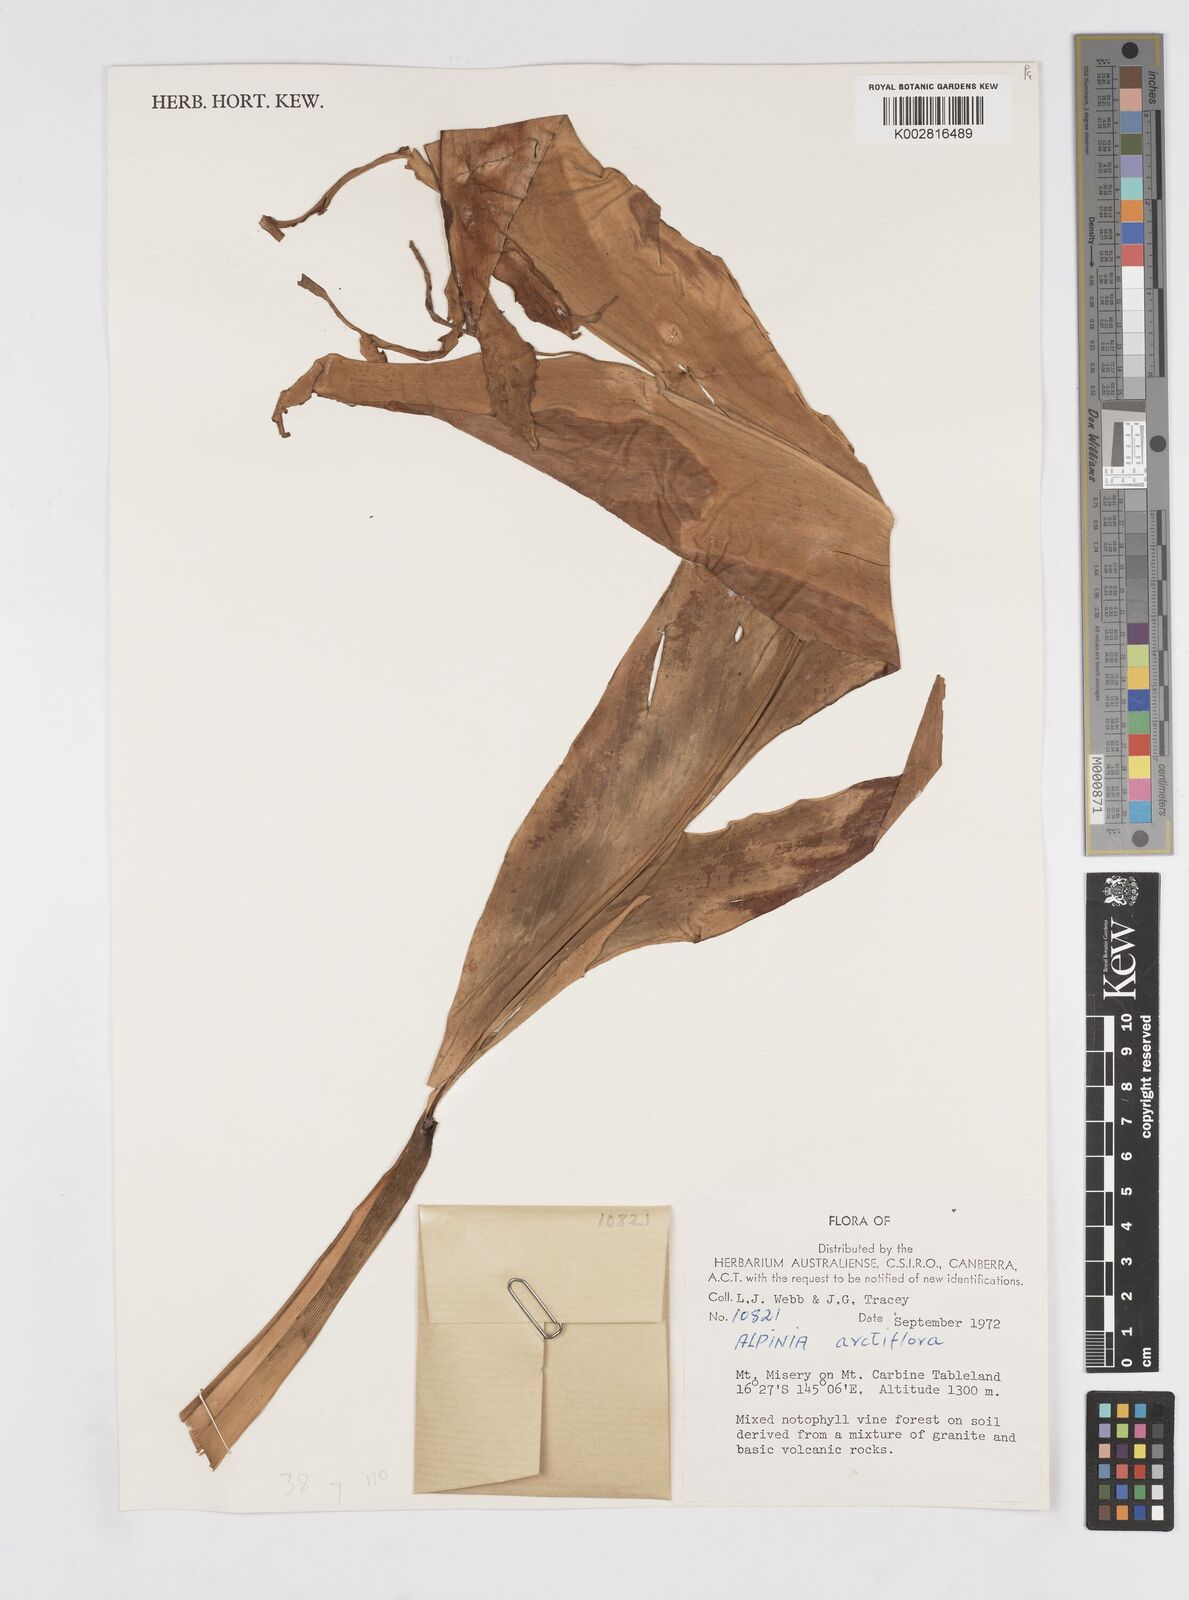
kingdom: Plantae
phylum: Tracheophyta
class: Liliopsida
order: Zingiberales
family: Zingiberaceae
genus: Alpinia
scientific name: Alpinia arctiflora
